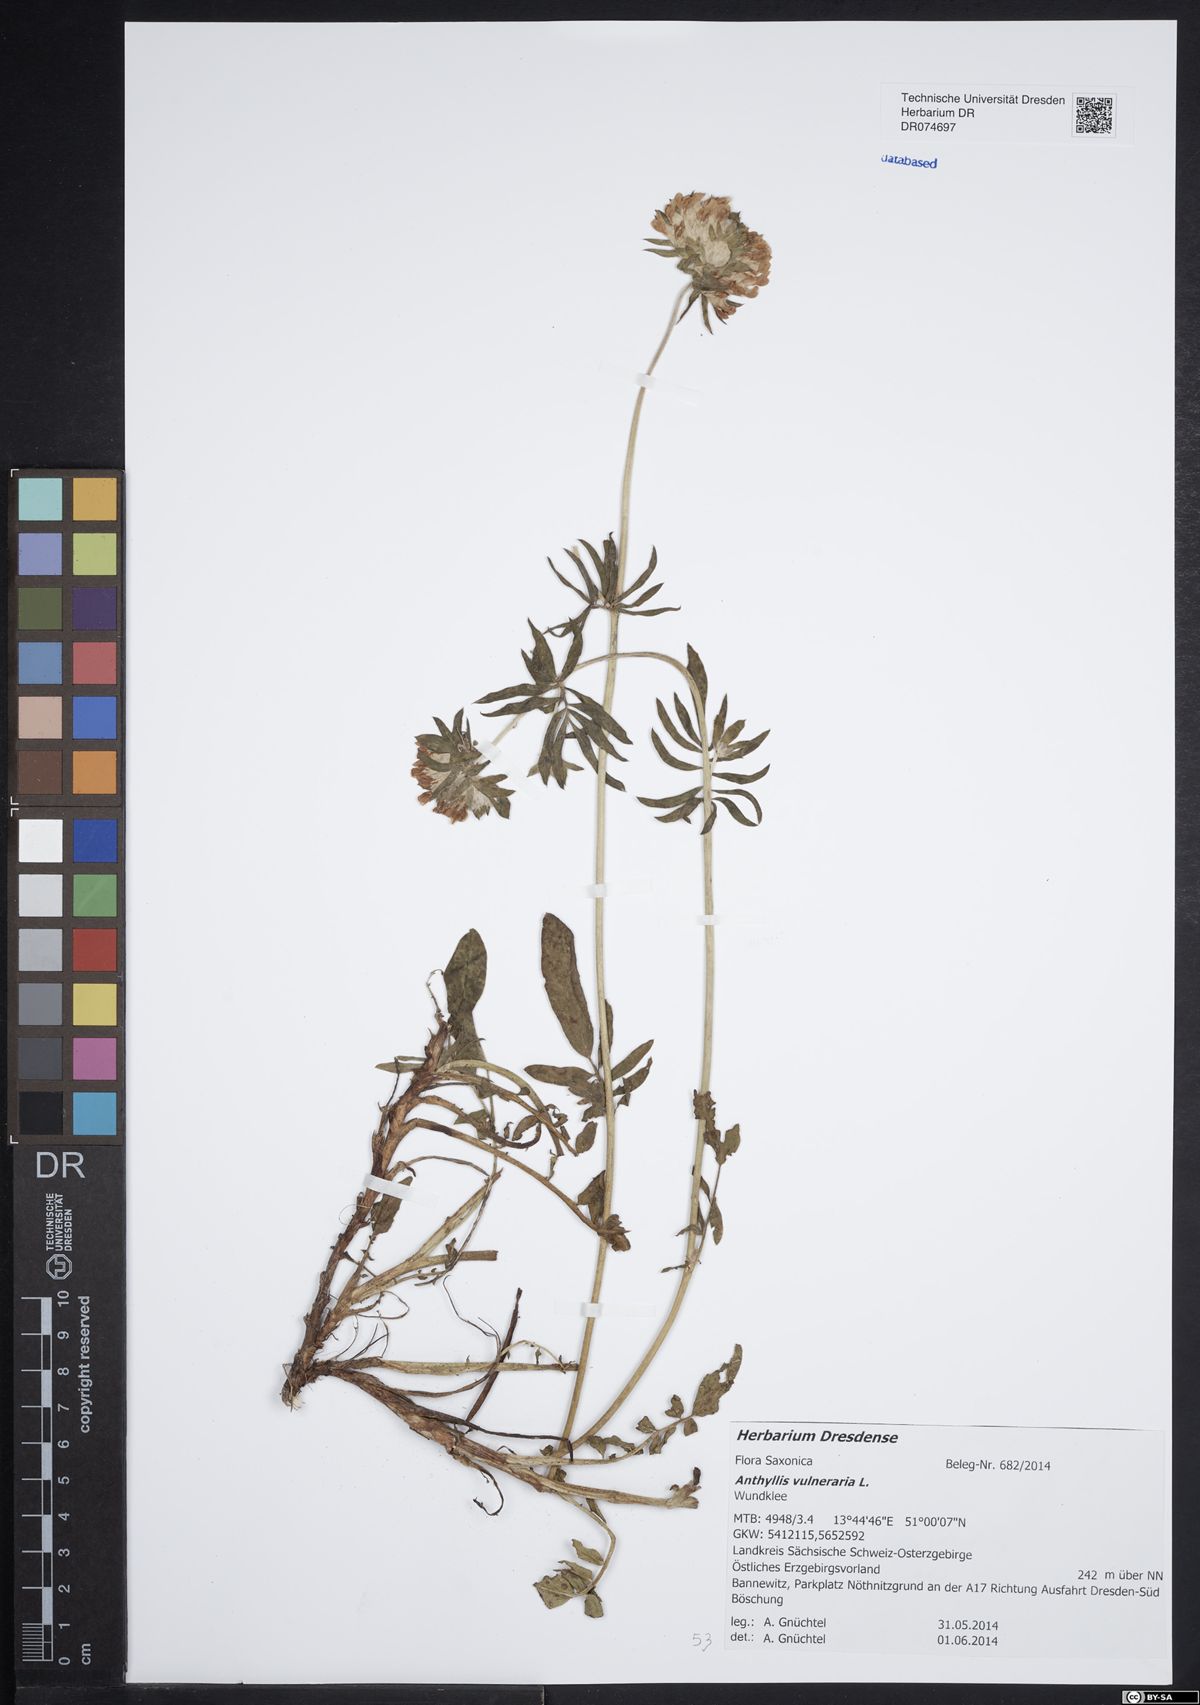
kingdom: Plantae
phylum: Tracheophyta
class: Magnoliopsida
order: Fabales
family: Fabaceae
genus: Anthyllis
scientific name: Anthyllis vulneraria
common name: Kidney vetch
